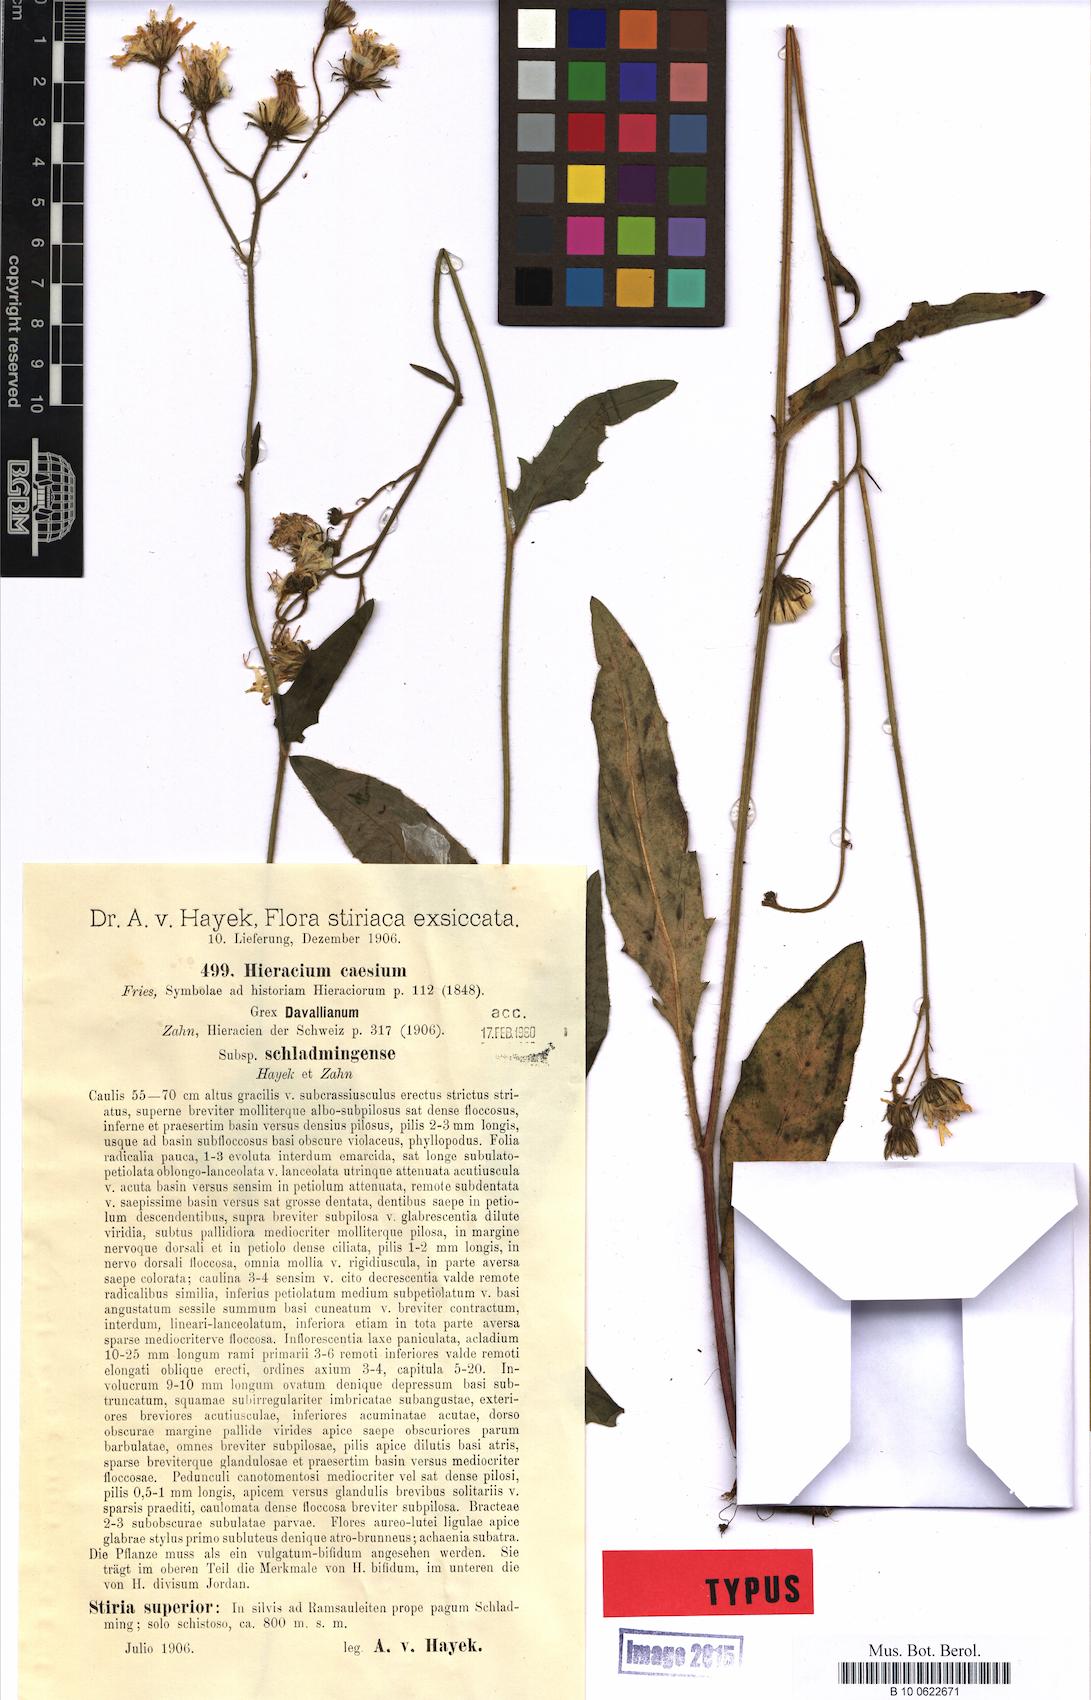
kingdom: Plantae
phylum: Tracheophyta
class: Magnoliopsida
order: Asterales
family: Asteraceae
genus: Hieracium
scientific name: Hieracium caesium
